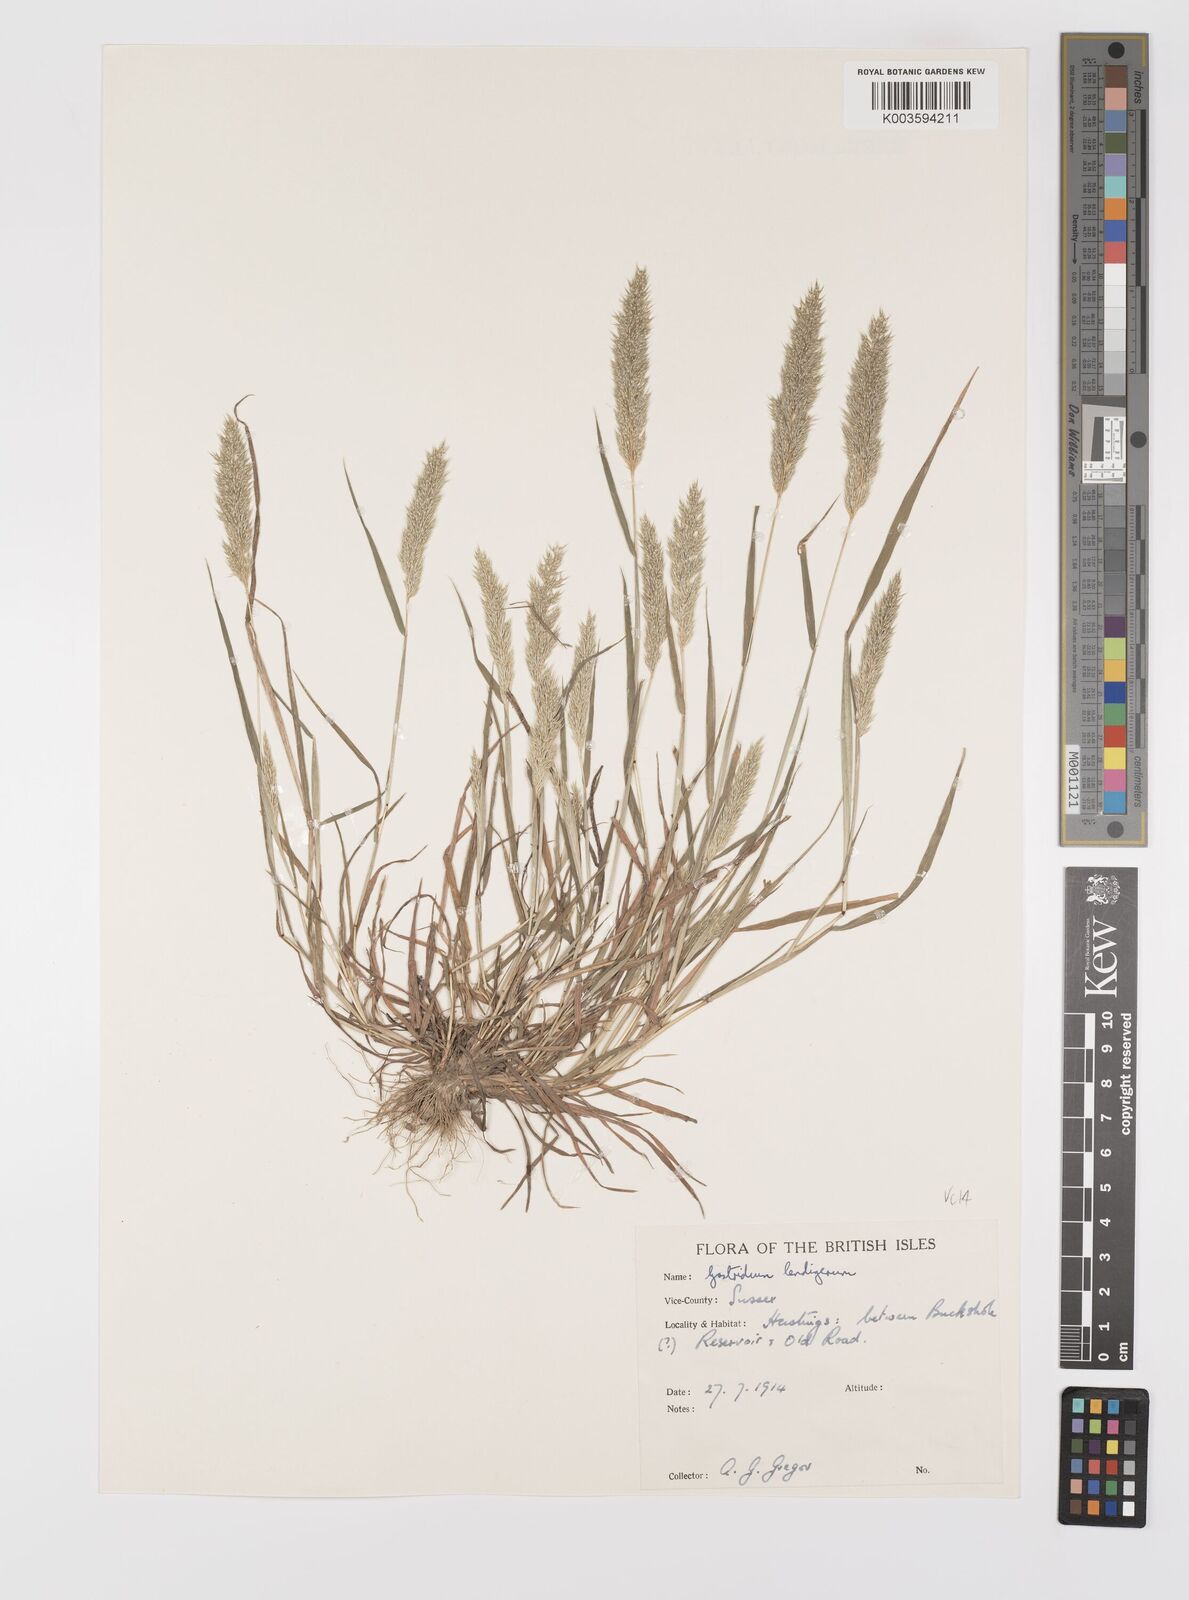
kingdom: Plantae
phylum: Tracheophyta
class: Liliopsida
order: Poales
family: Poaceae
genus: Gastridium
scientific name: Gastridium ventricosum
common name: Nit-grass
